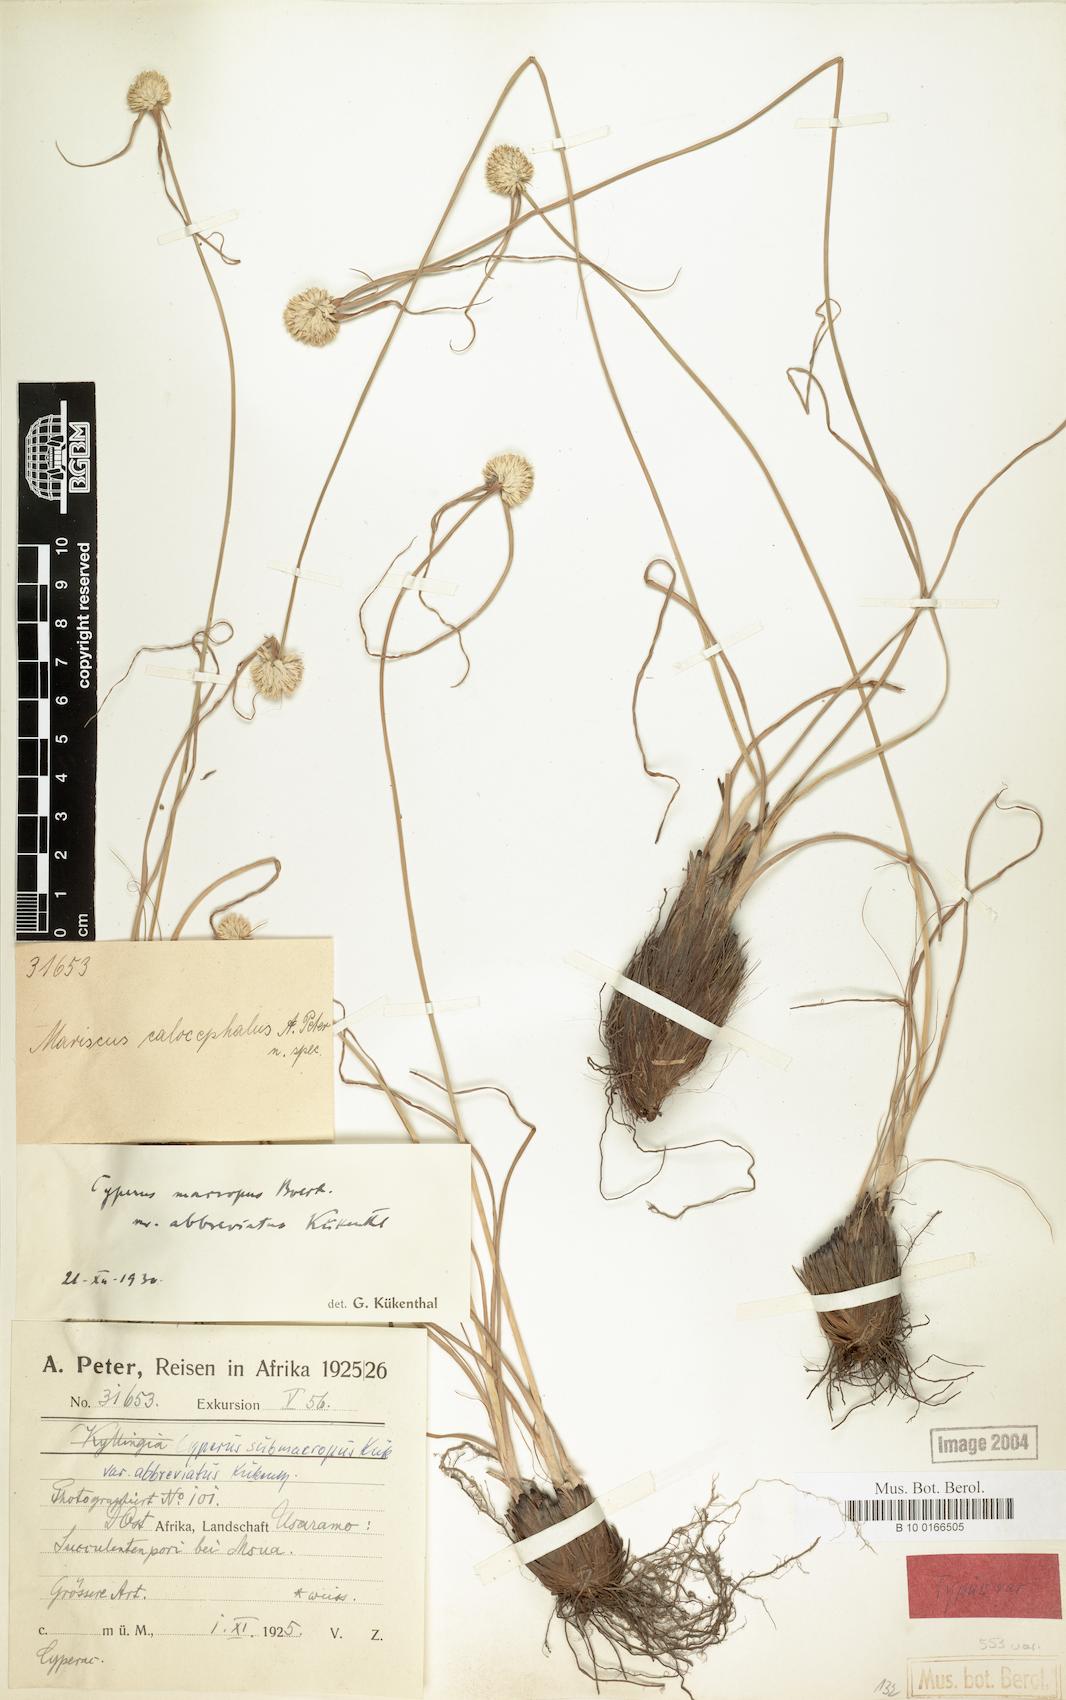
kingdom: Plantae
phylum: Tracheophyta
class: Liliopsida
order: Poales
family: Cyperaceae
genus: Cyperus
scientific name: Cyperus mollipes
